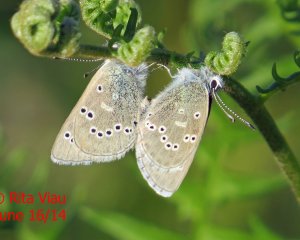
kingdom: Animalia
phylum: Arthropoda
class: Insecta
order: Lepidoptera
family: Lycaenidae
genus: Glaucopsyche
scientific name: Glaucopsyche lygdamus
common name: Silvery Blue
